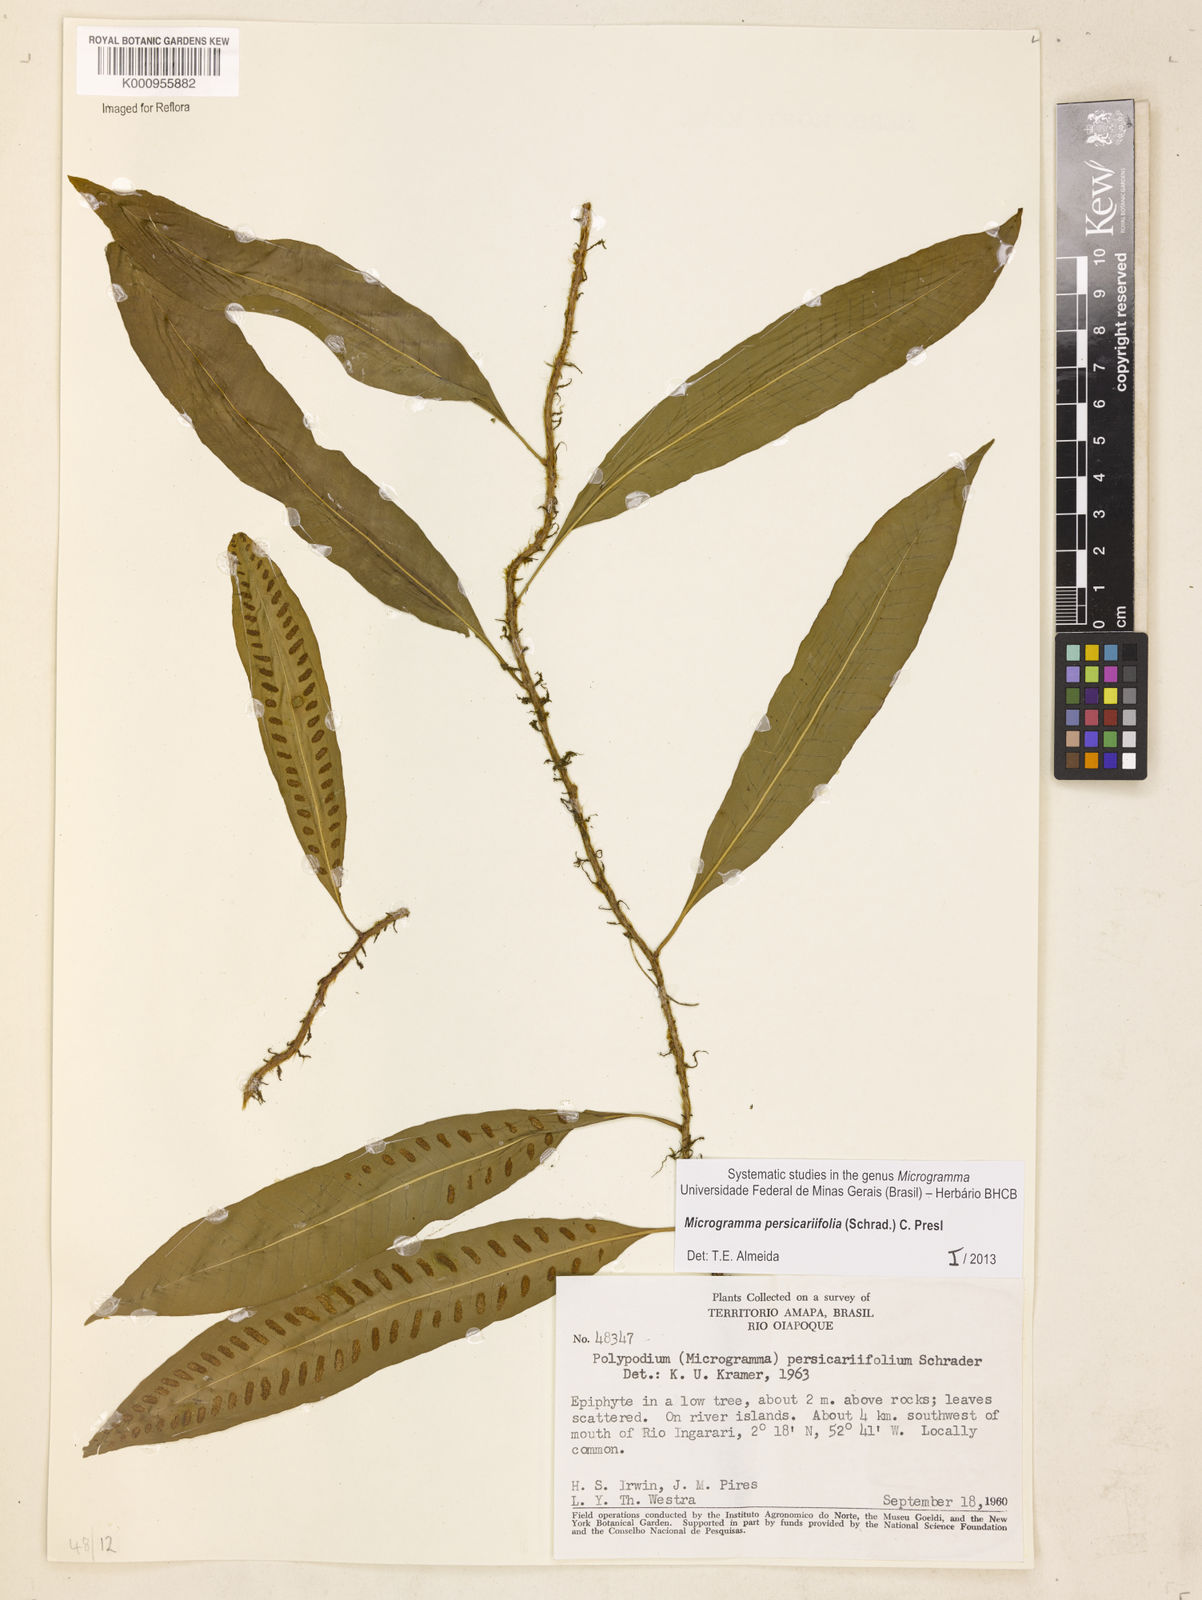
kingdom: Plantae
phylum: Tracheophyta
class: Polypodiopsida
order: Polypodiales
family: Polypodiaceae
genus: Microgramma
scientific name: Microgramma persicariifolia
